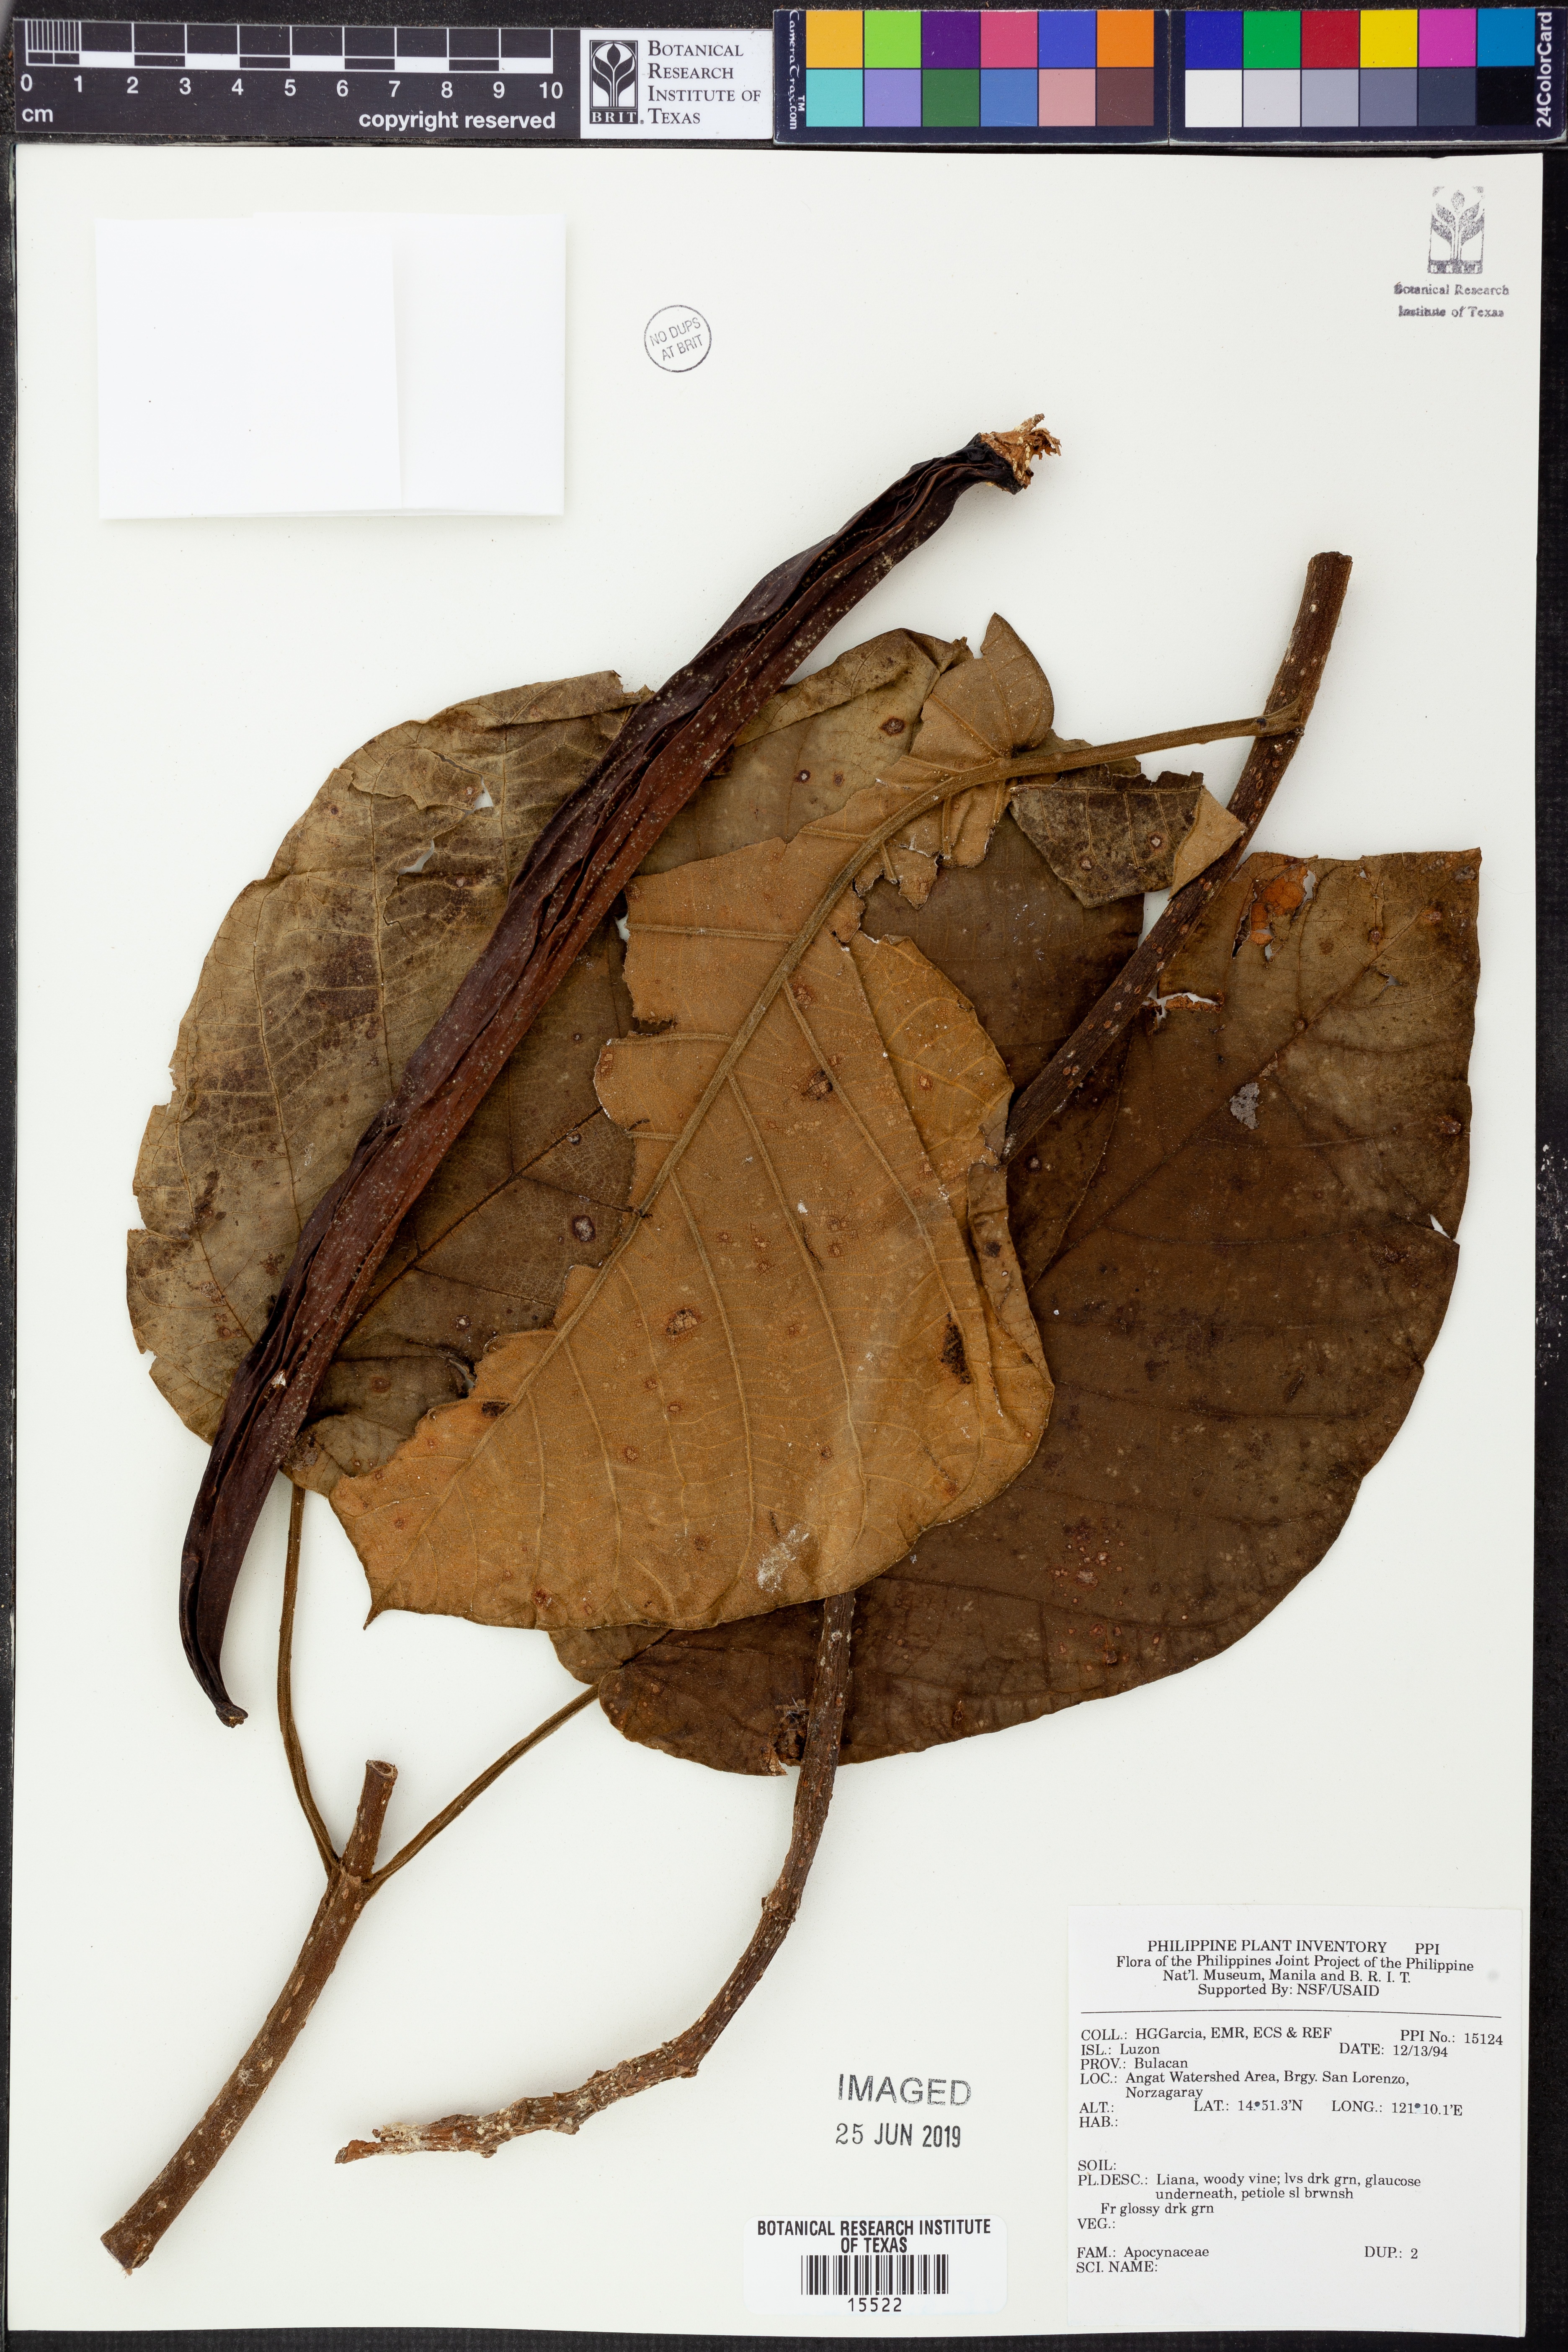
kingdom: Plantae
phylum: Tracheophyta
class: Magnoliopsida
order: Gentianales
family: Apocynaceae
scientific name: Apocynaceae
